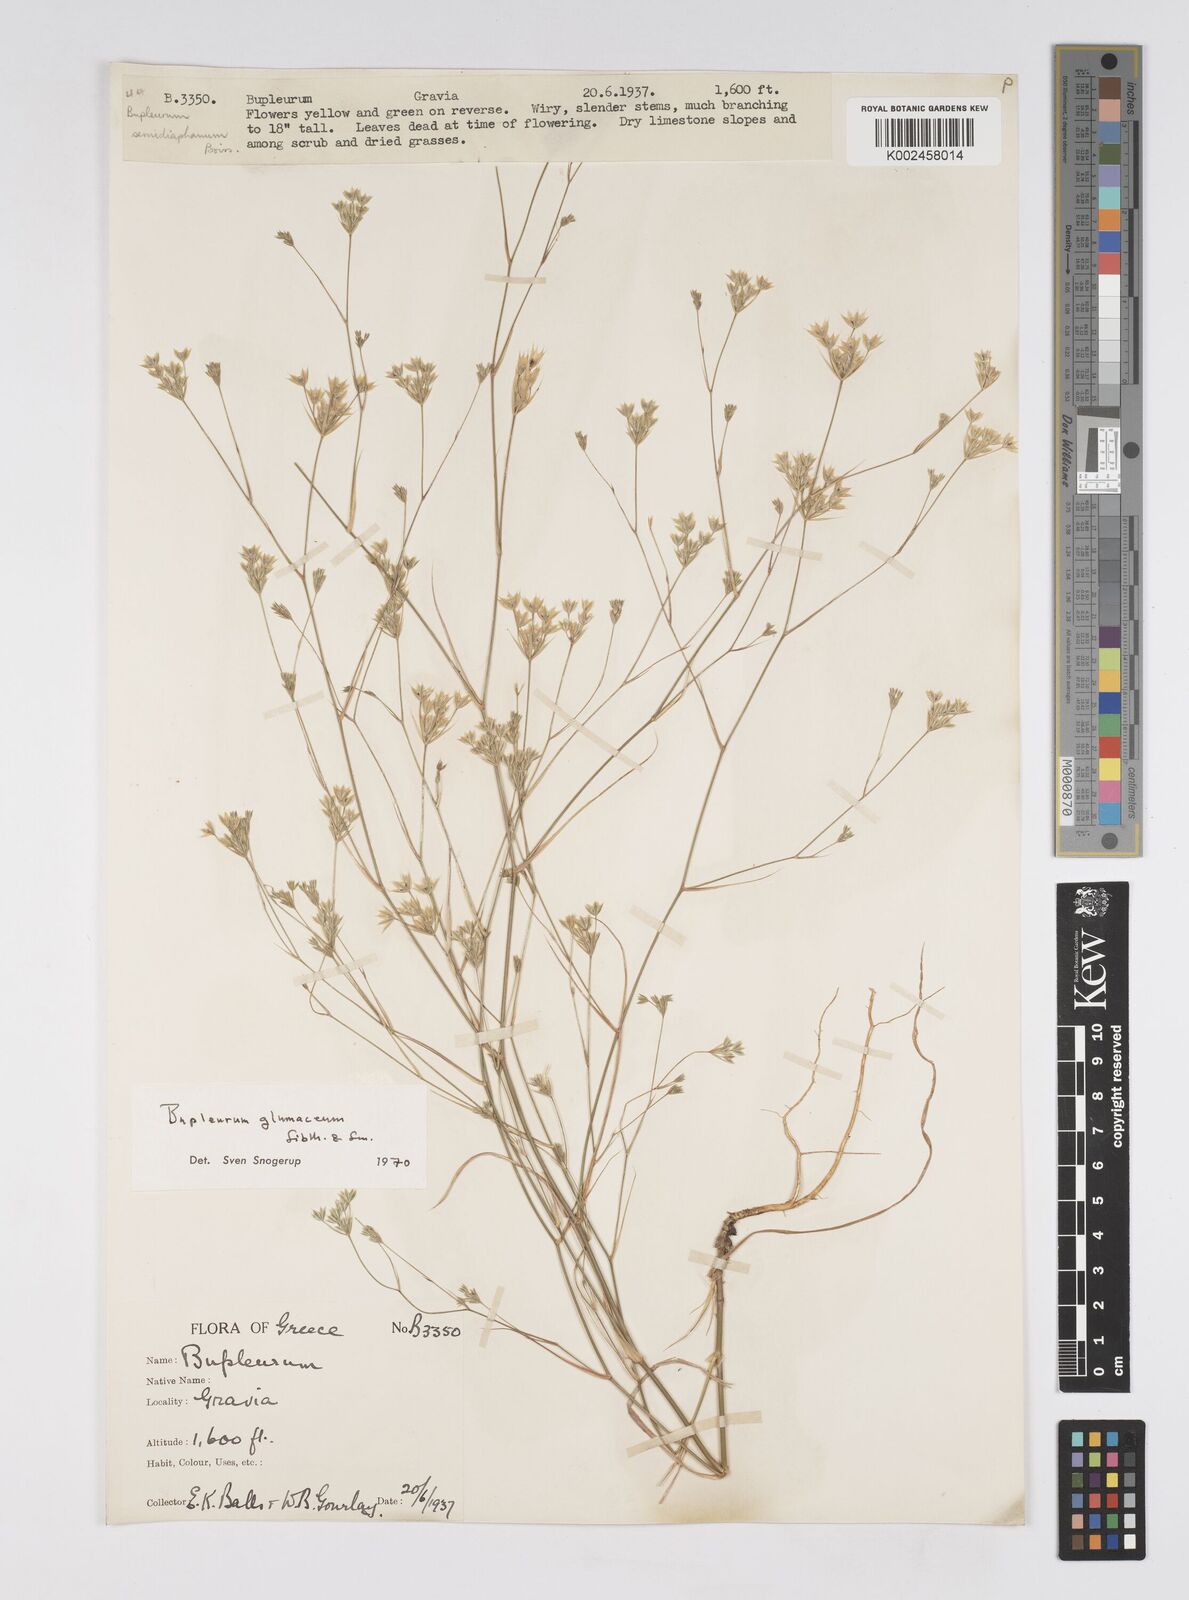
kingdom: Plantae
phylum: Tracheophyta
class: Magnoliopsida
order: Apiales
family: Apiaceae
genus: Bupleurum
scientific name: Bupleurum glumaceum
